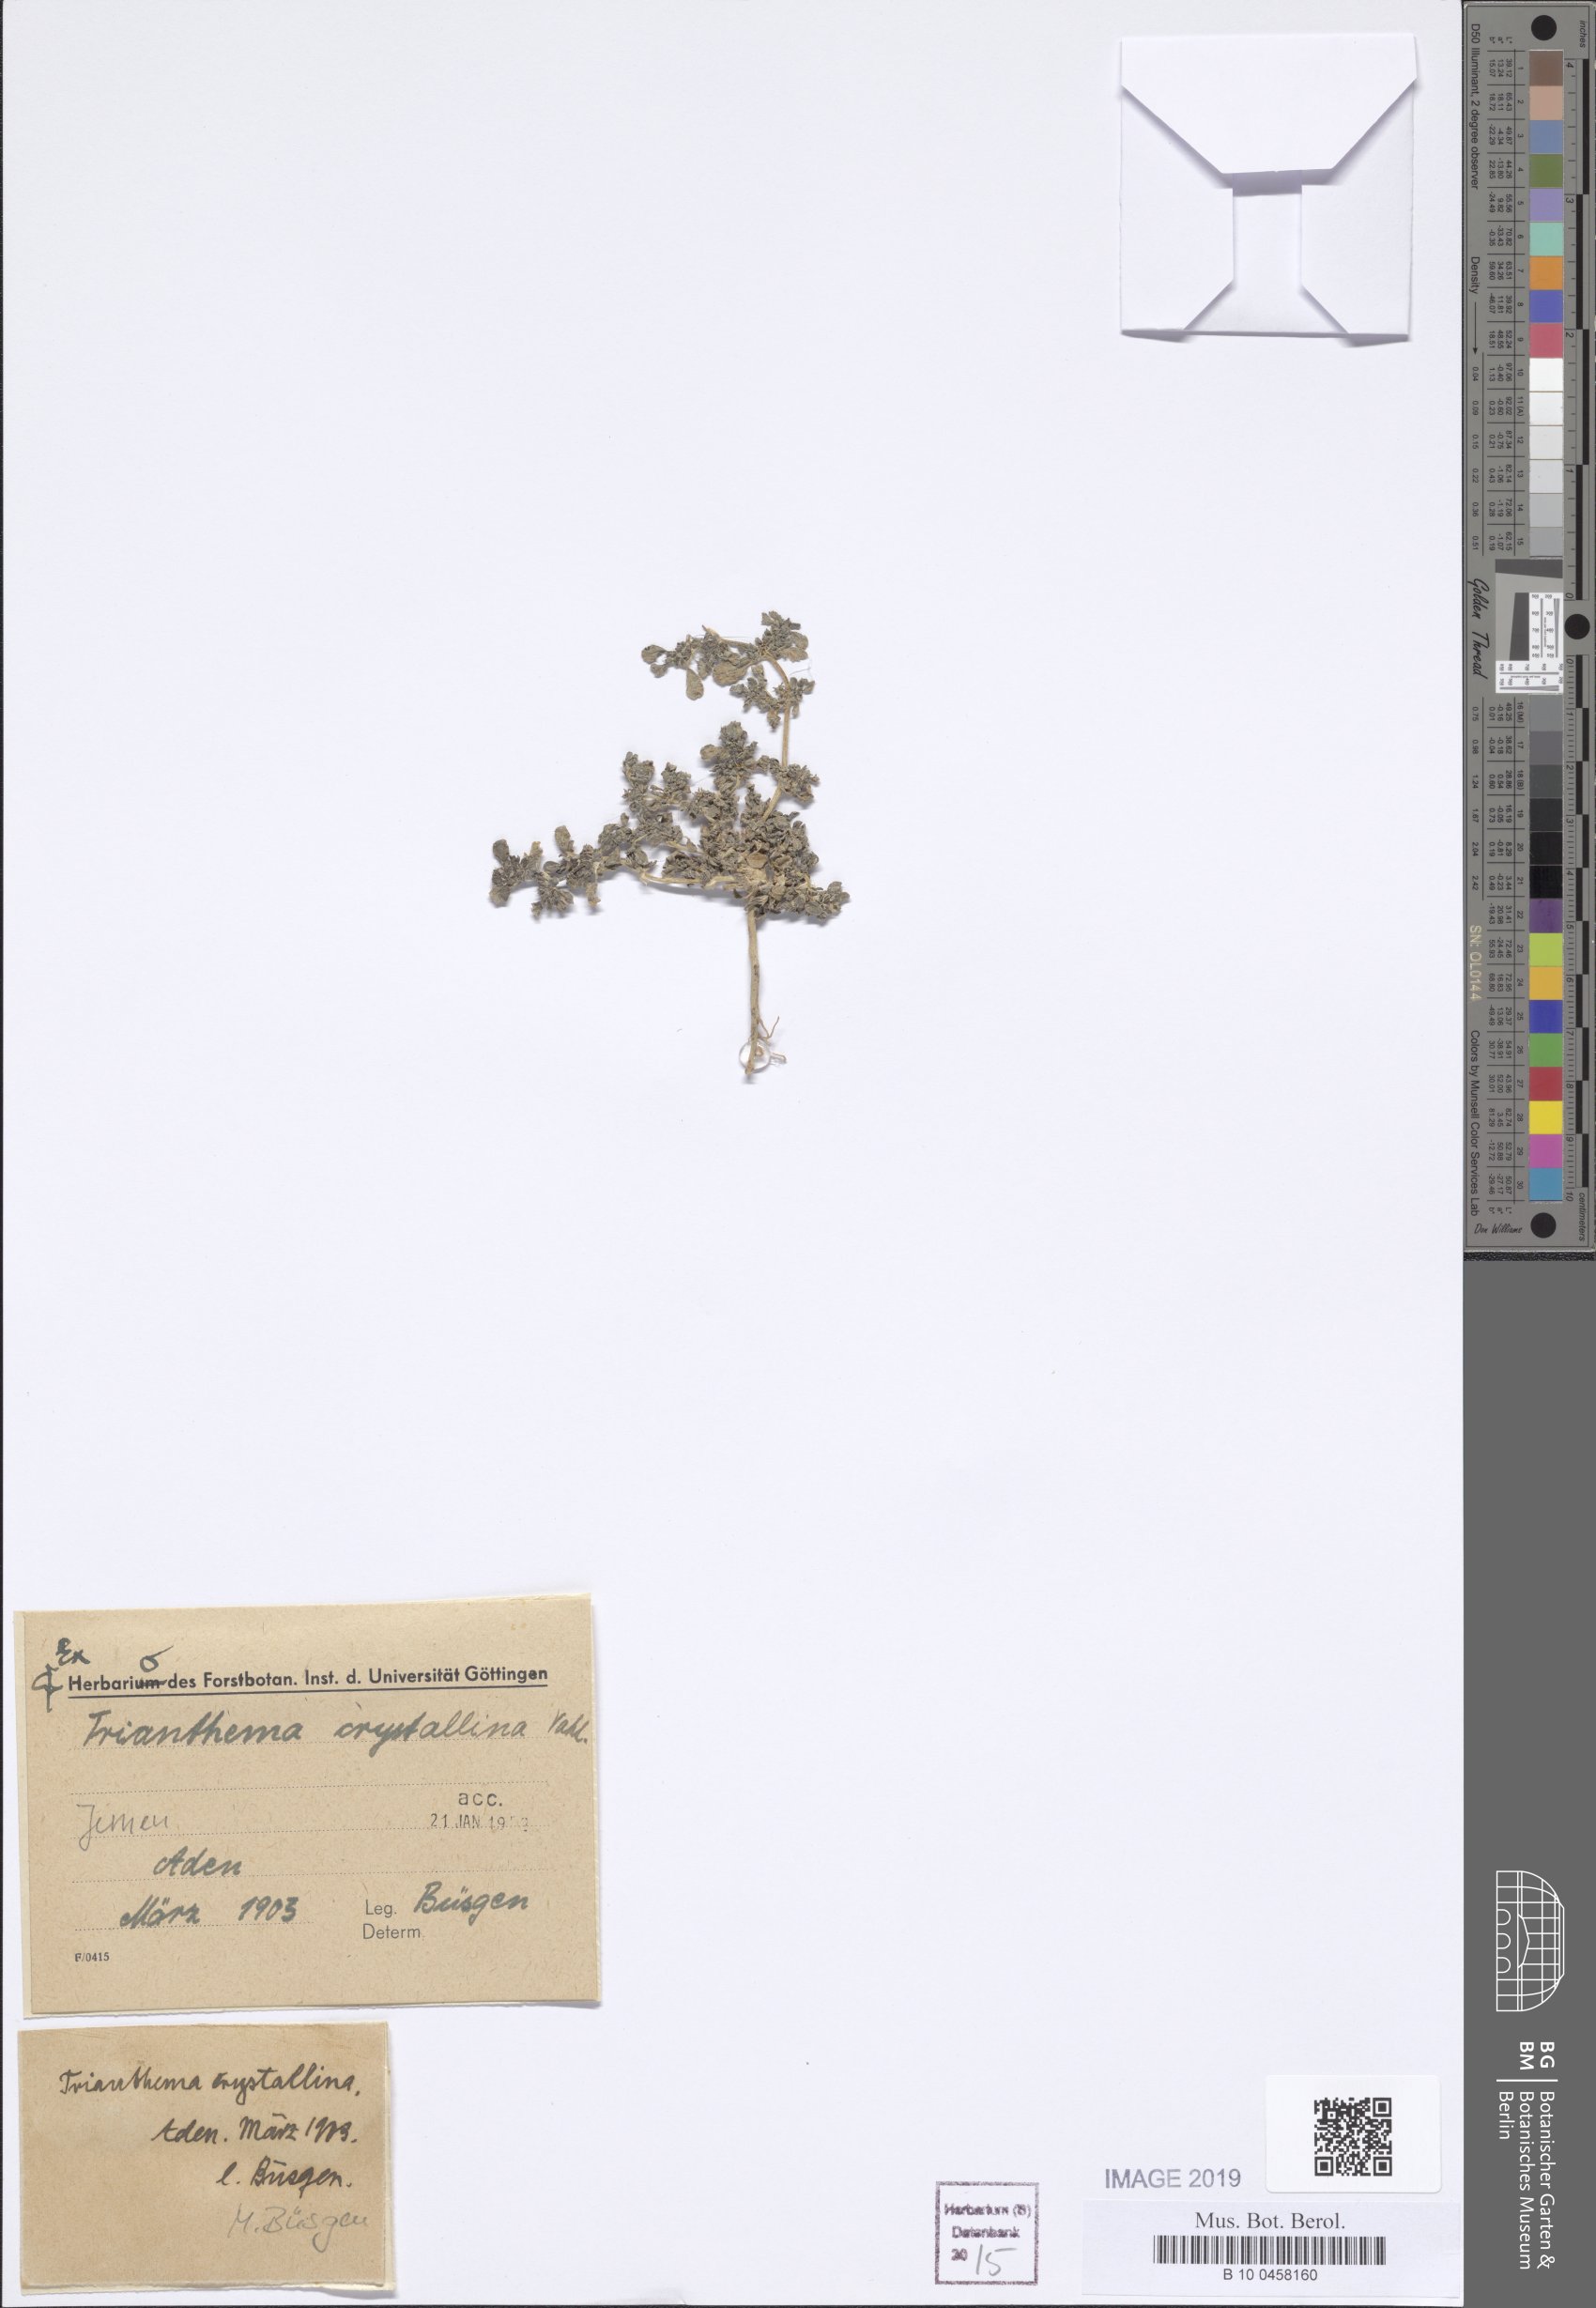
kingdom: Plantae
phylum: Tracheophyta
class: Magnoliopsida
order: Caryophyllales
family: Aizoaceae
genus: Trianthema
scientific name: Trianthema crystallinum
